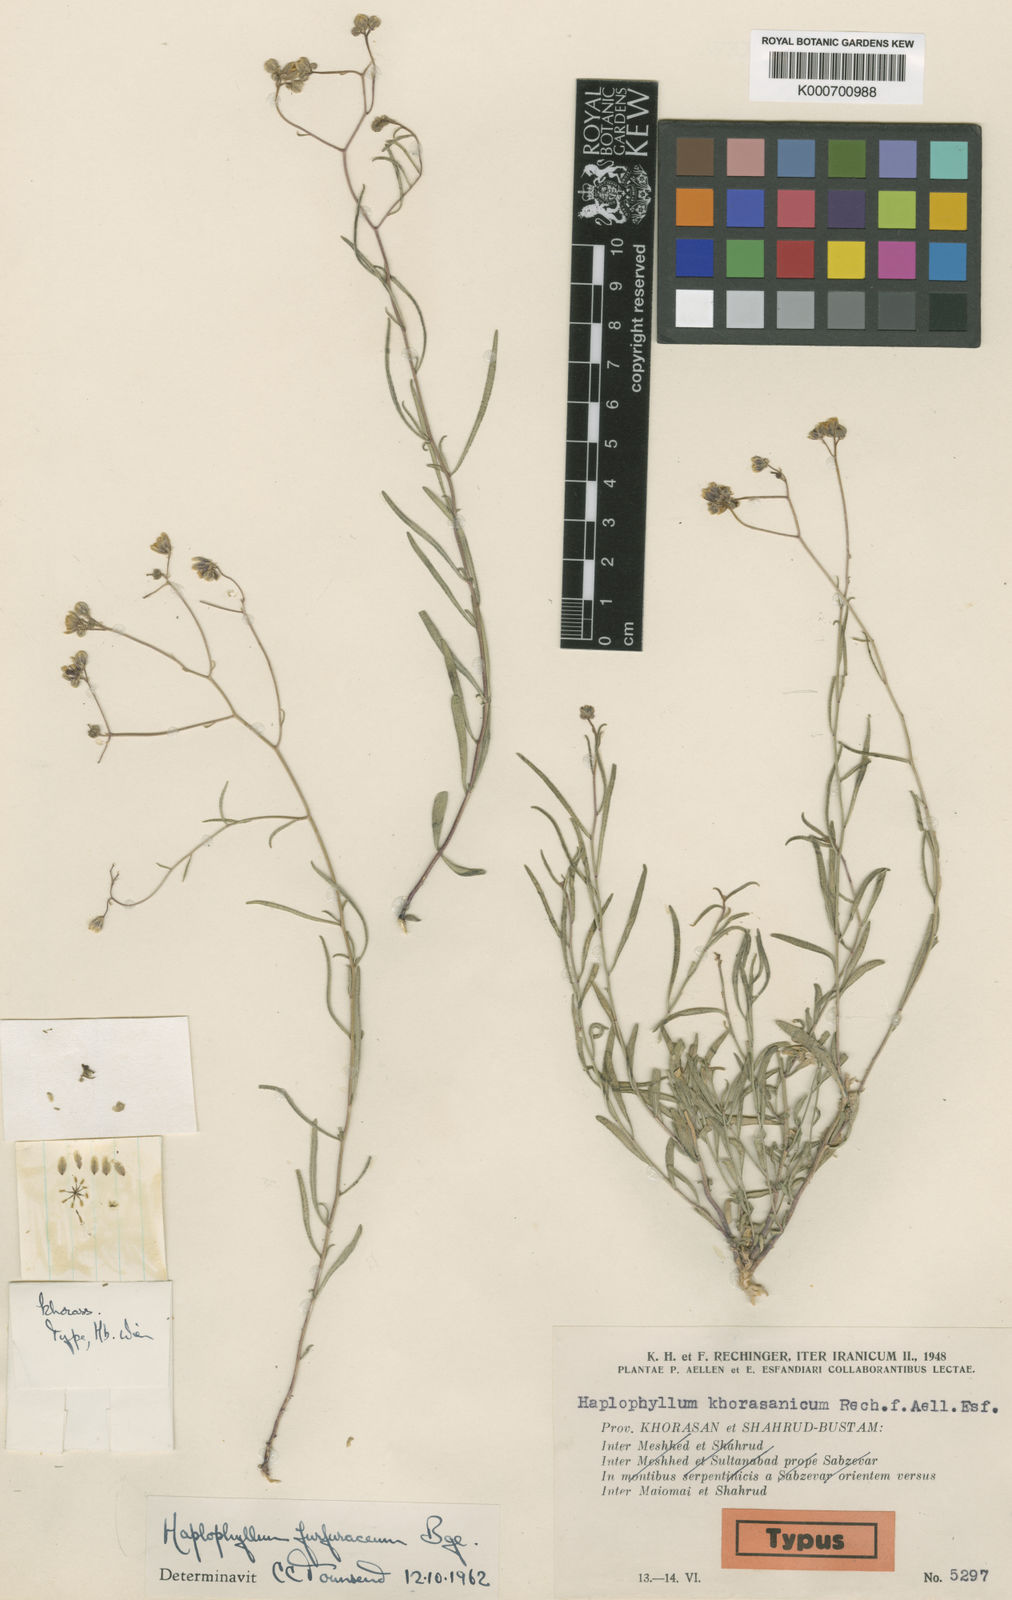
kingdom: Plantae
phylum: Tracheophyta
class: Magnoliopsida
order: Sapindales
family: Rutaceae
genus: Haplophyllum
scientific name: Haplophyllum furfuraceum
